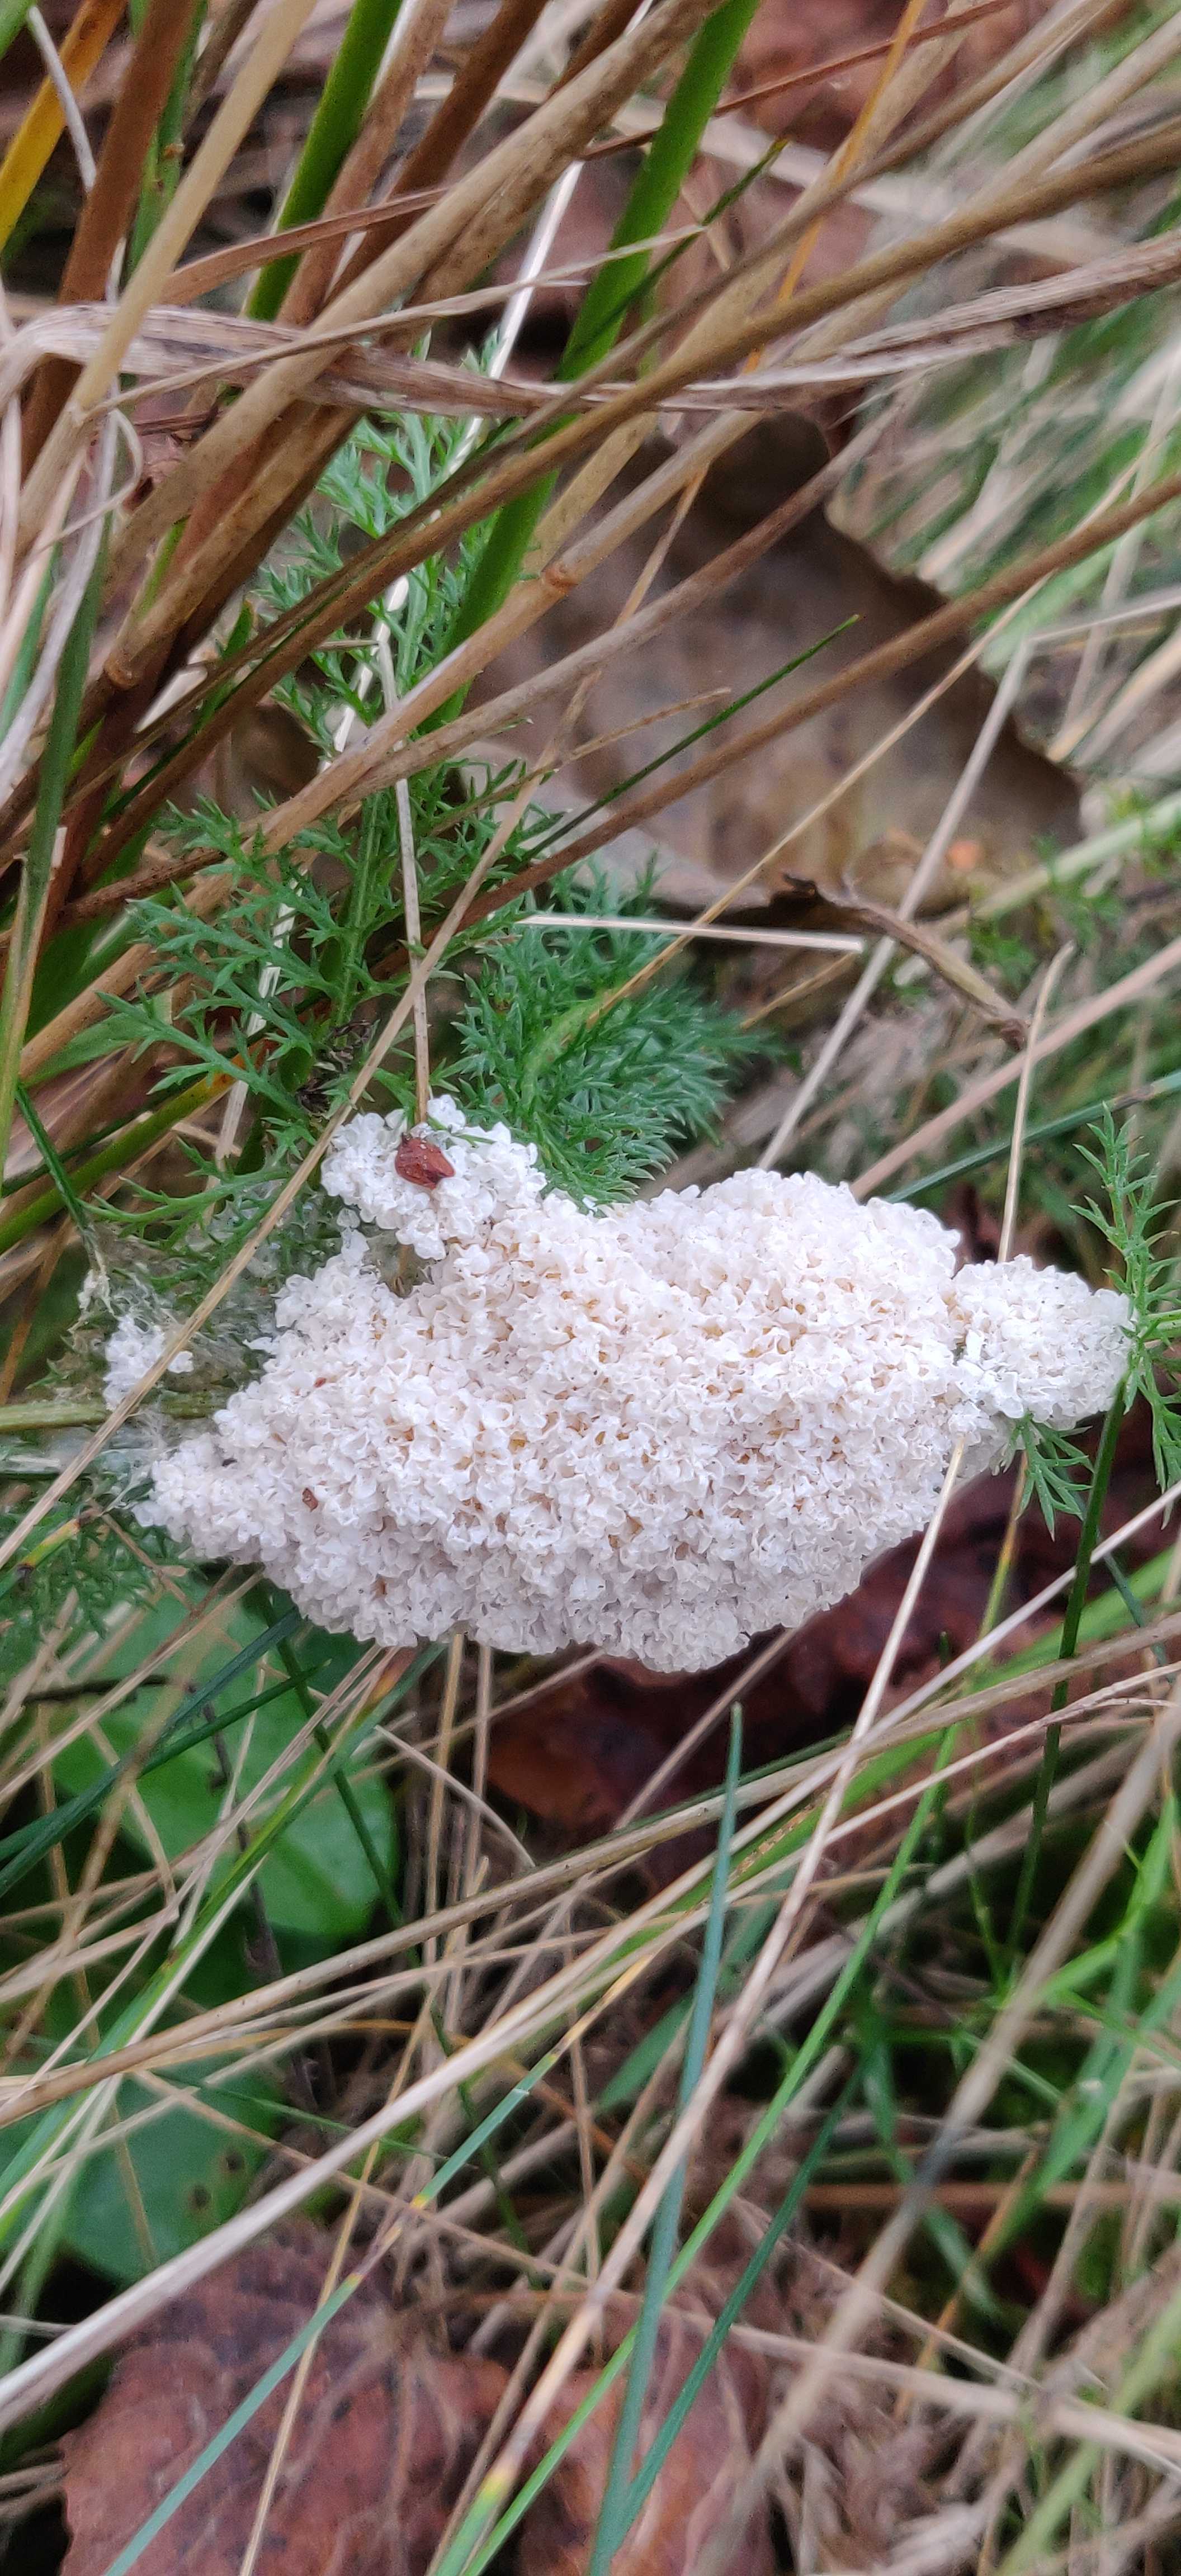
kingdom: Protozoa
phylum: Mycetozoa
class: Myxomycetes
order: Physarales
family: Physaraceae
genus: Didymium
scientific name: Didymium
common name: urteskum
